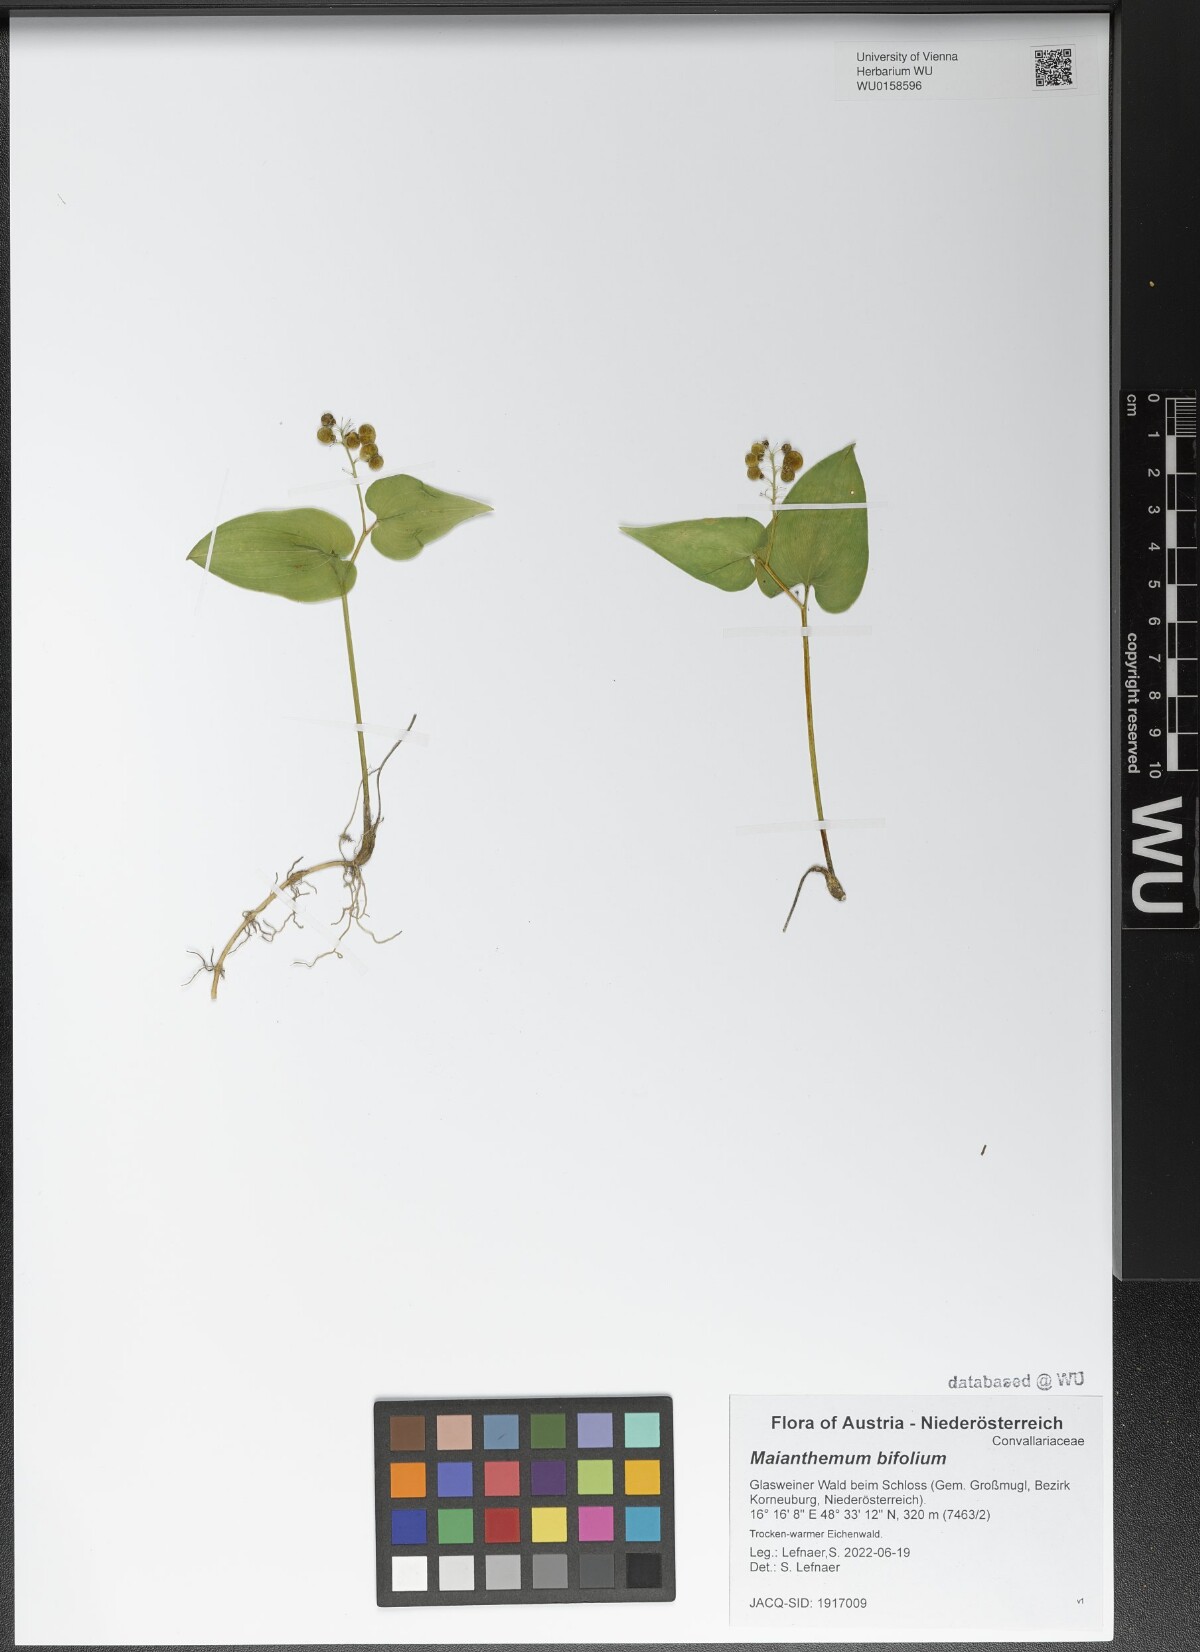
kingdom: Plantae
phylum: Tracheophyta
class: Liliopsida
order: Asparagales
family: Asparagaceae
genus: Maianthemum
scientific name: Maianthemum bifolium
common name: May lily
